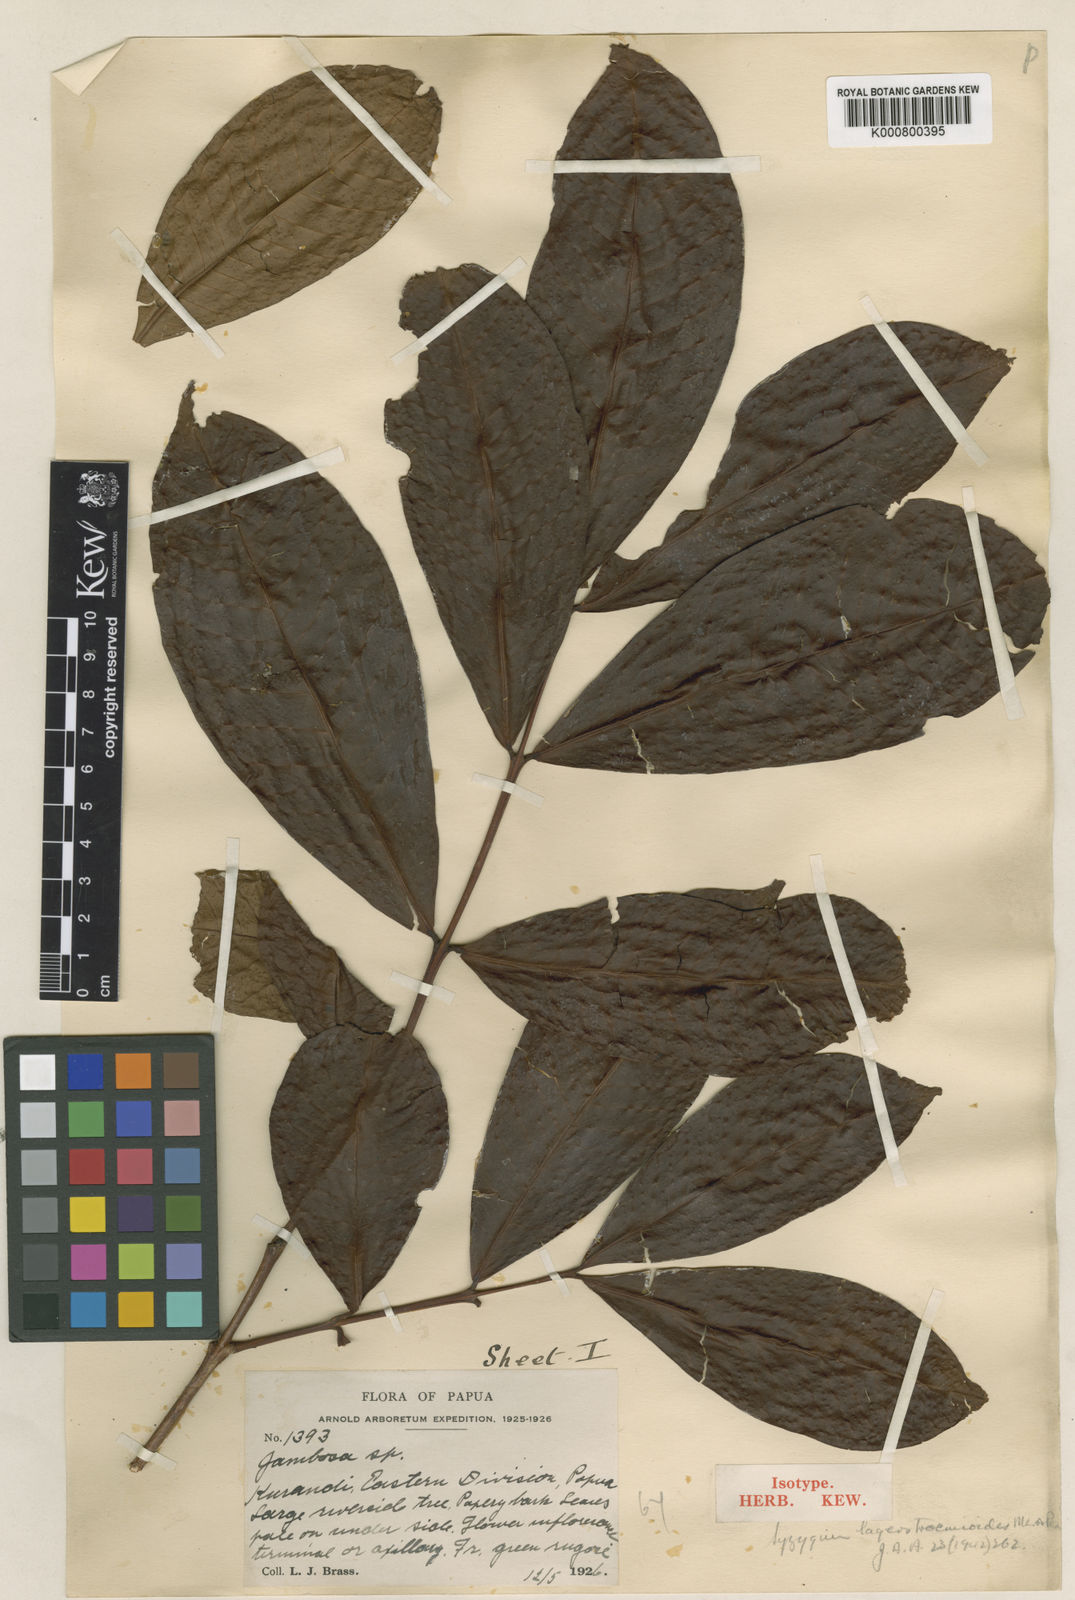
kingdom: Plantae
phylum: Tracheophyta
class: Magnoliopsida
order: Myrtales
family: Myrtaceae
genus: Syzygium
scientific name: Syzygium lagerstmemioides
